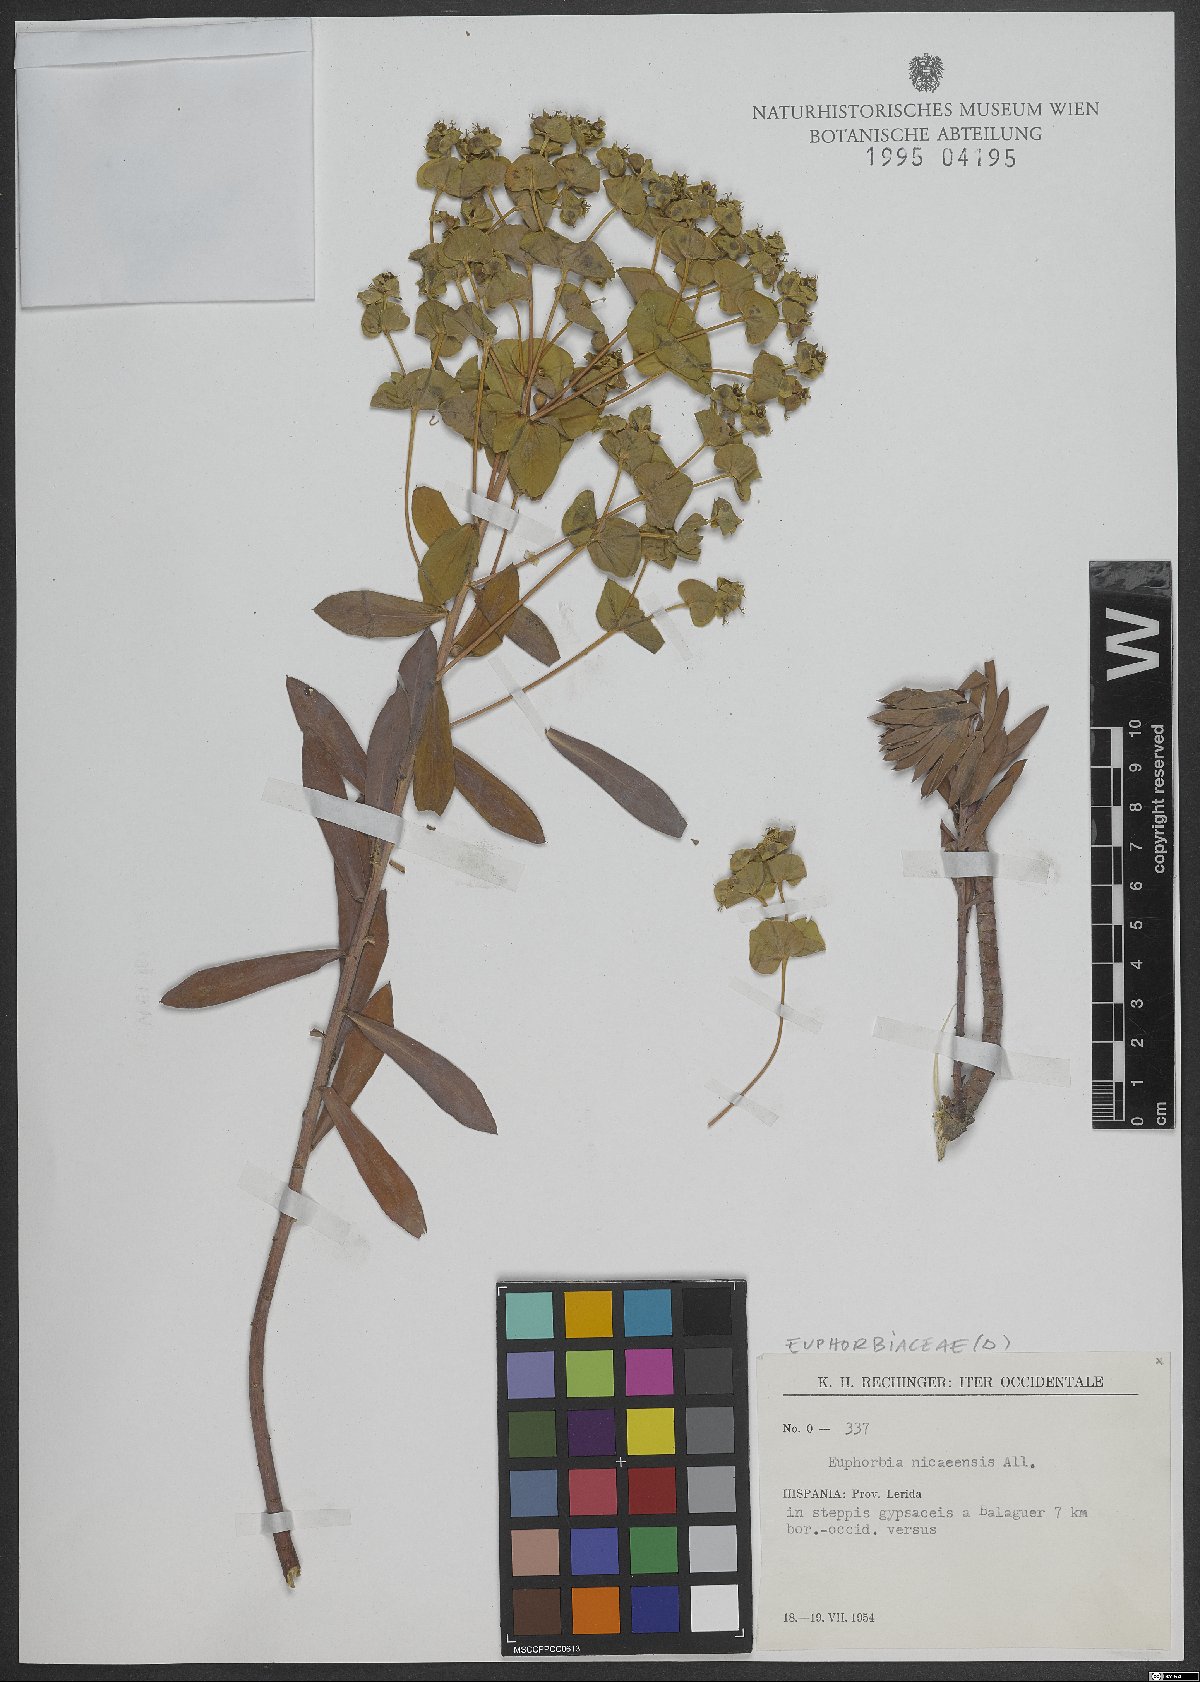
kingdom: Plantae
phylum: Tracheophyta
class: Magnoliopsida
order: Malpighiales
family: Euphorbiaceae
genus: Euphorbia
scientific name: Euphorbia nicaeensis
